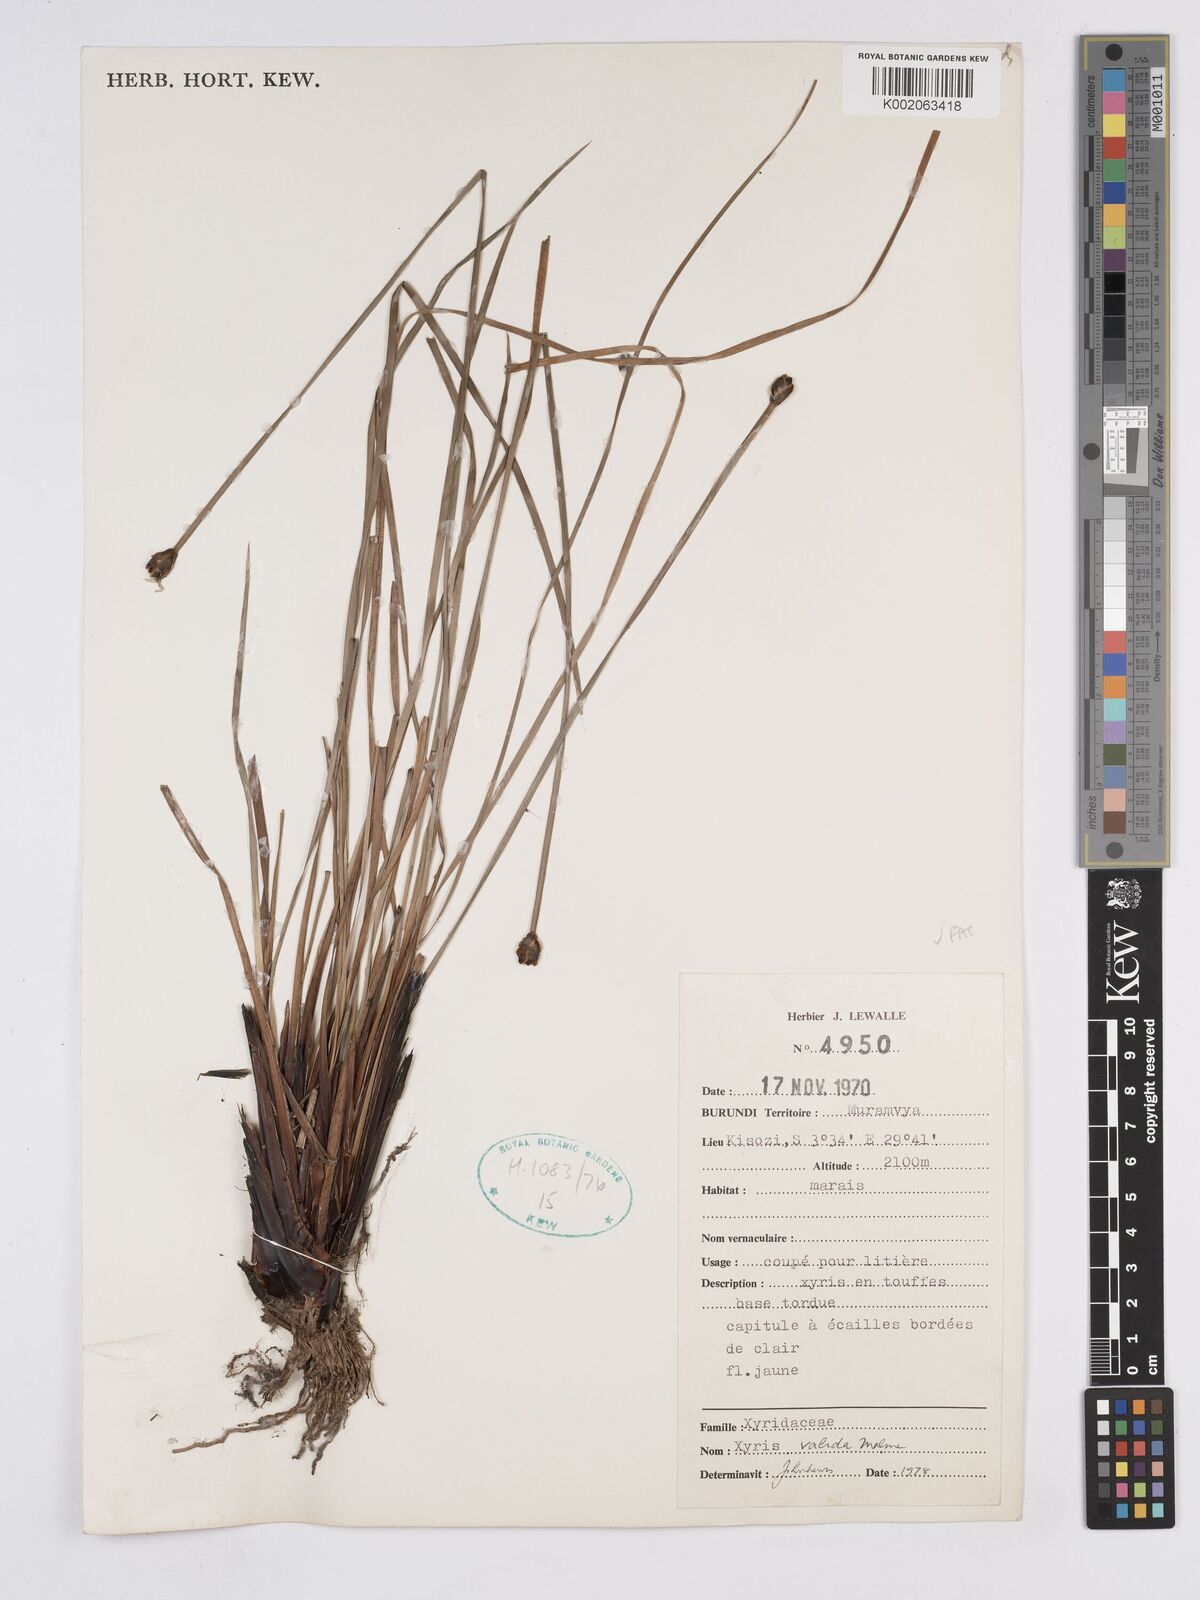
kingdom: Plantae
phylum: Tracheophyta
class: Liliopsida
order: Poales
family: Xyridaceae
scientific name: Xyridaceae
